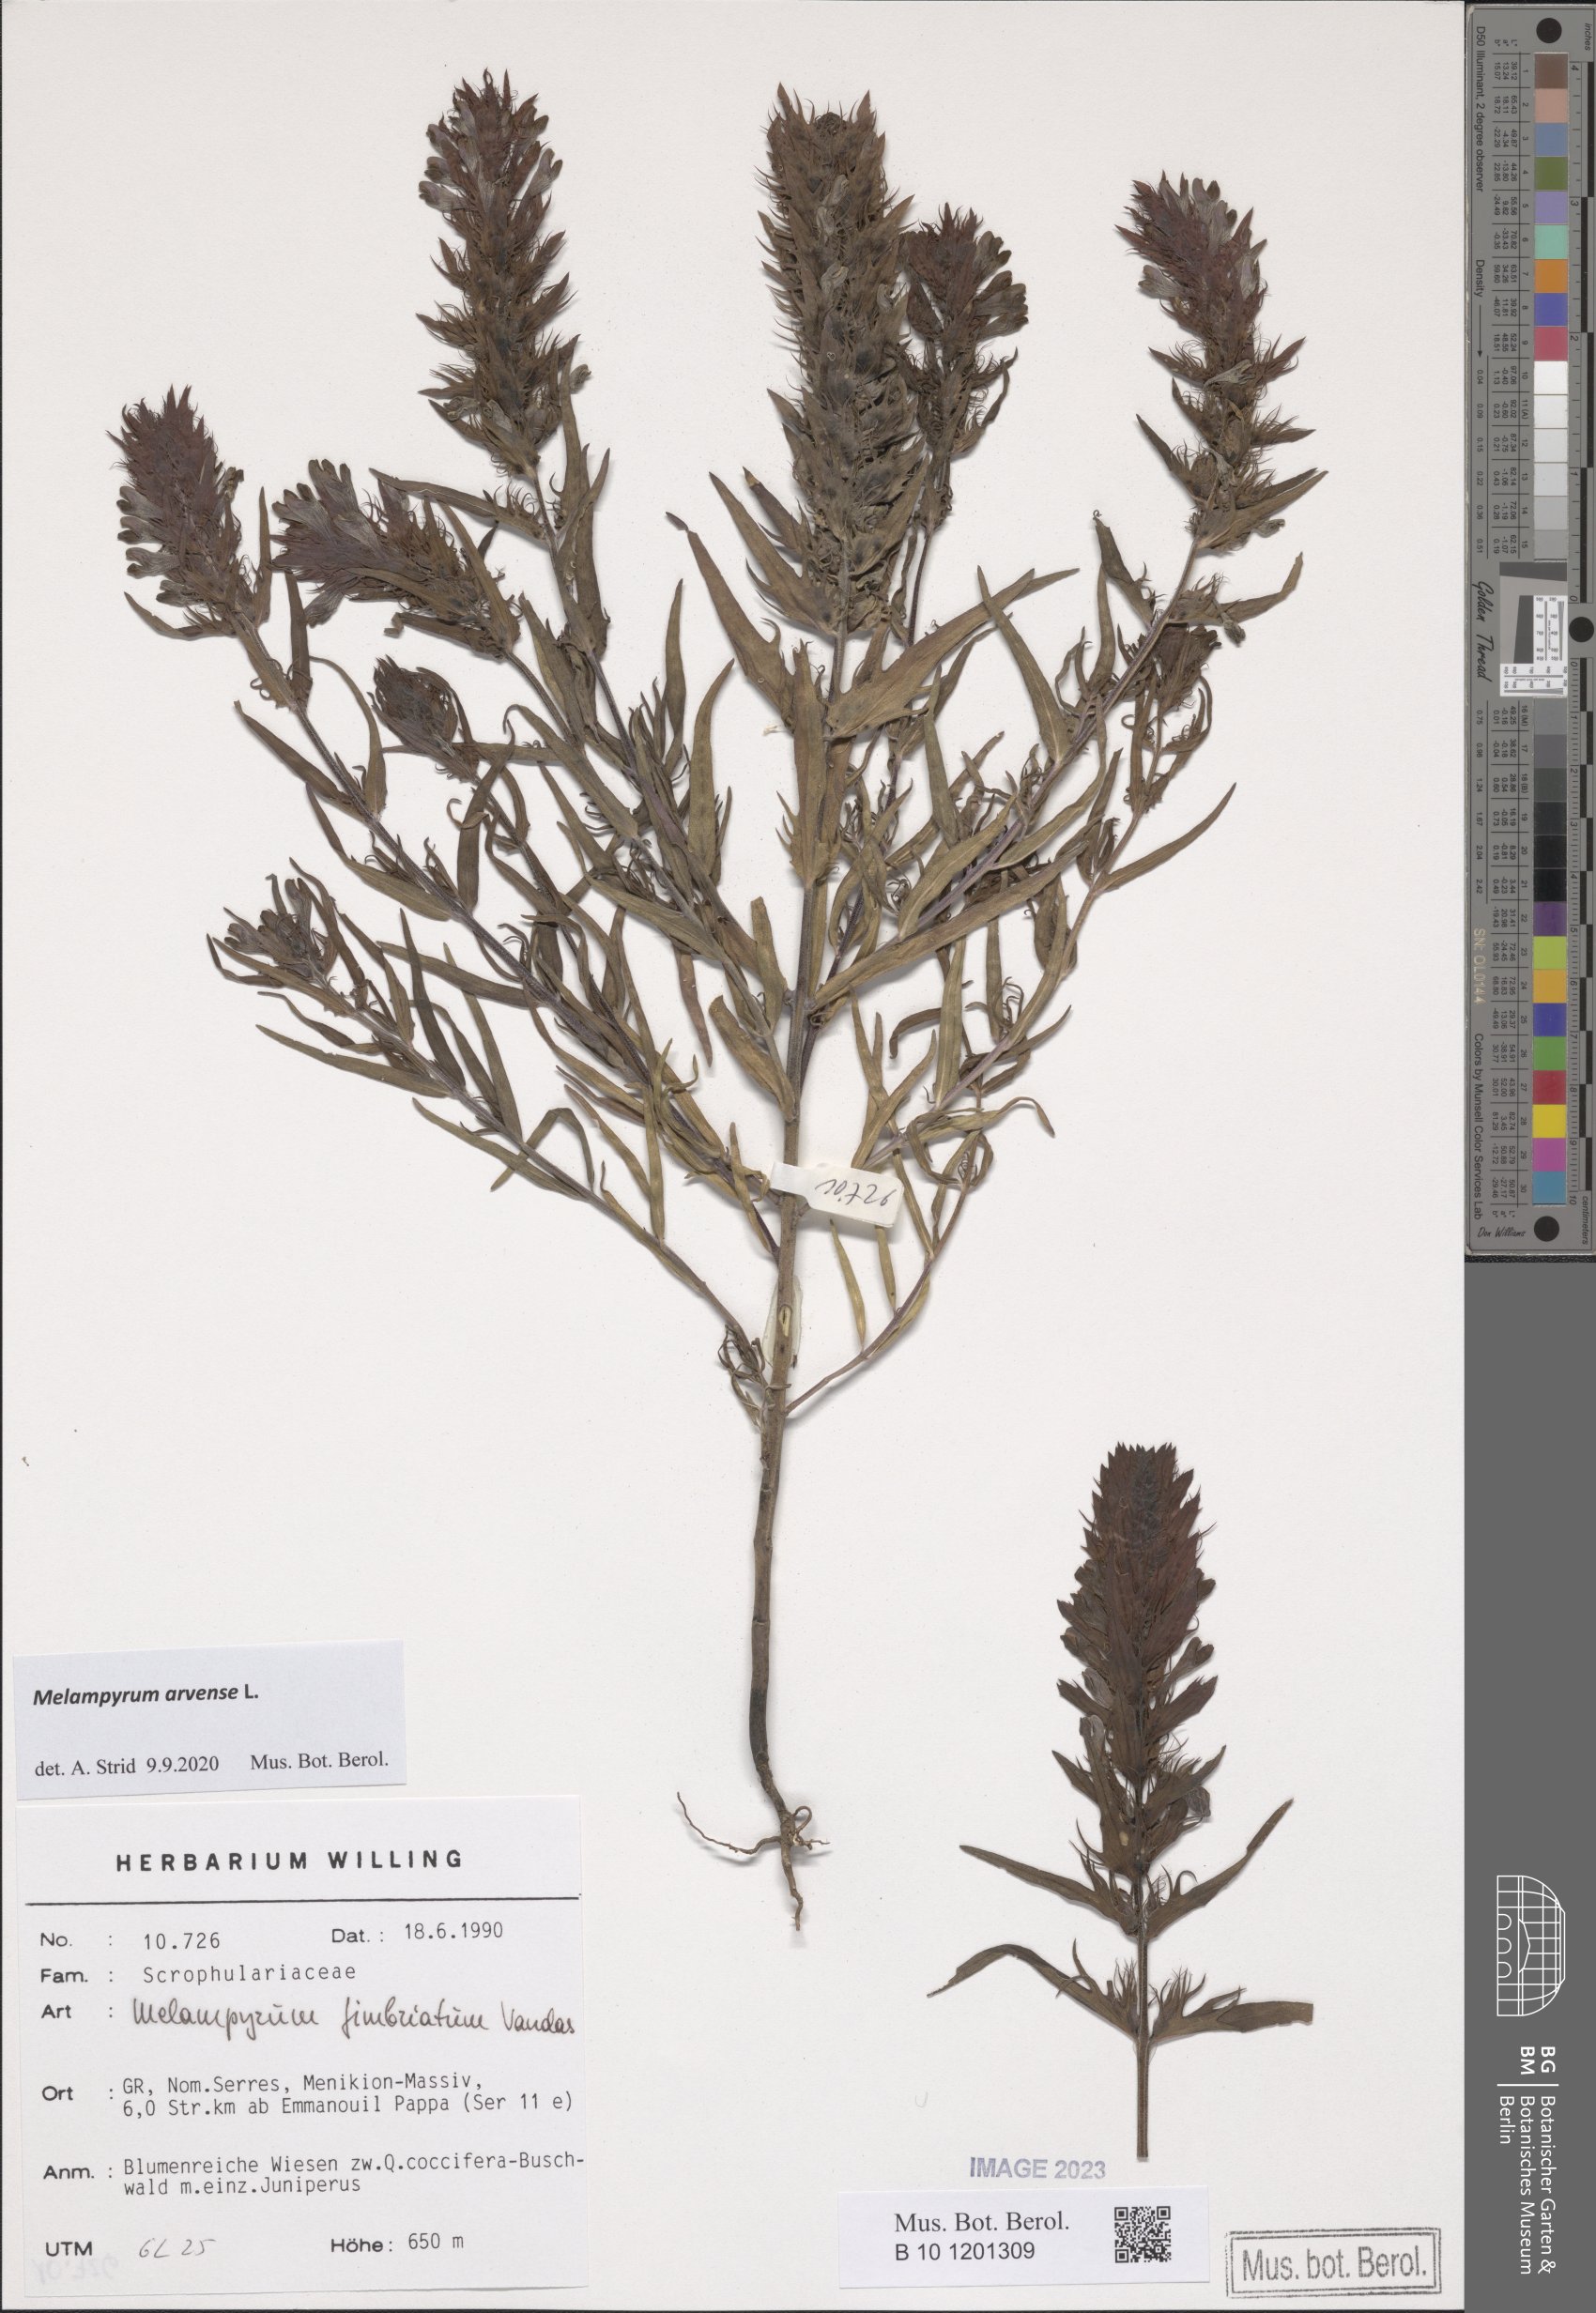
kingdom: Plantae
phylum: Tracheophyta
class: Magnoliopsida
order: Lamiales
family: Orobanchaceae
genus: Melampyrum
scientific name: Melampyrum arvense
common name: Field cow-wheat
